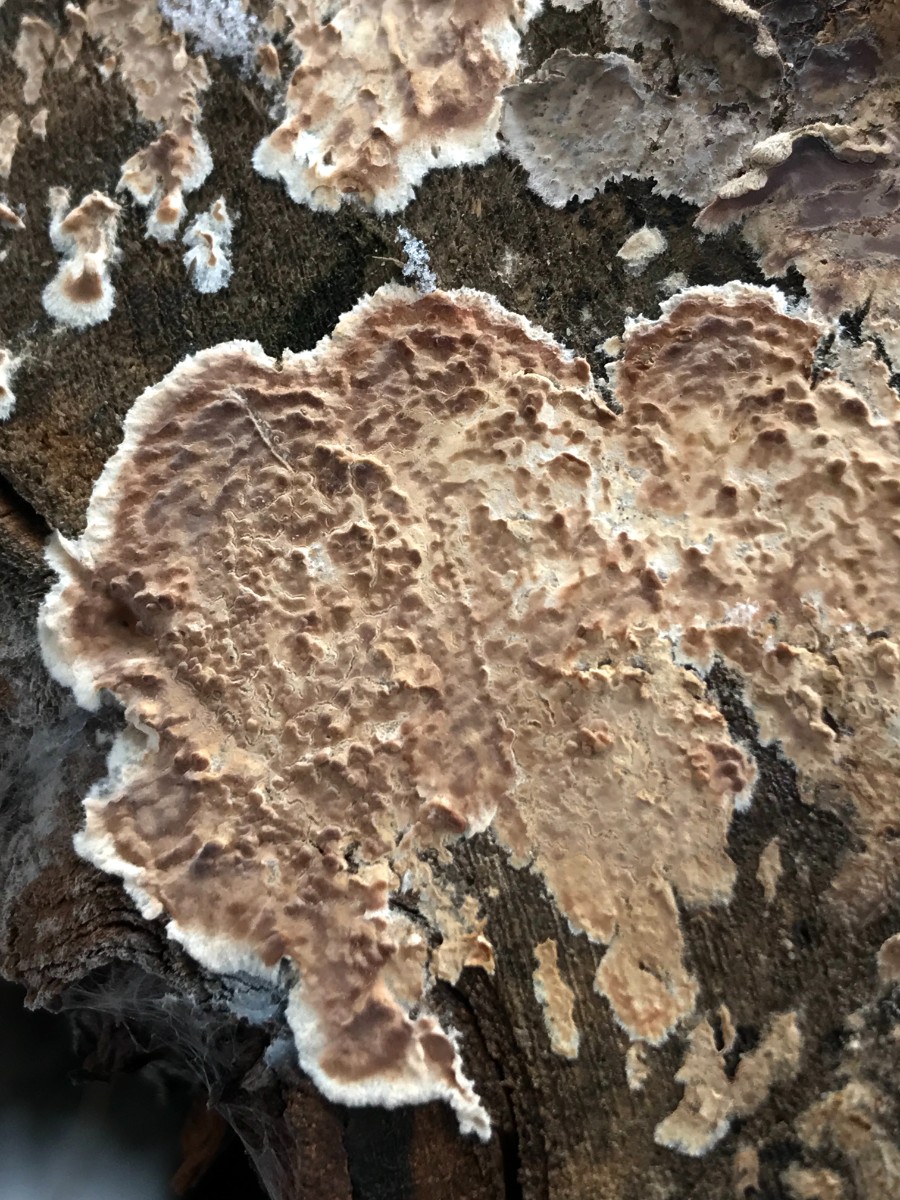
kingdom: Fungi
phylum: Basidiomycota
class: Agaricomycetes
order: Agaricales
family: Physalacriaceae
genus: Cylindrobasidium
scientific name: Cylindrobasidium evolvens
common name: sprækkehinde
